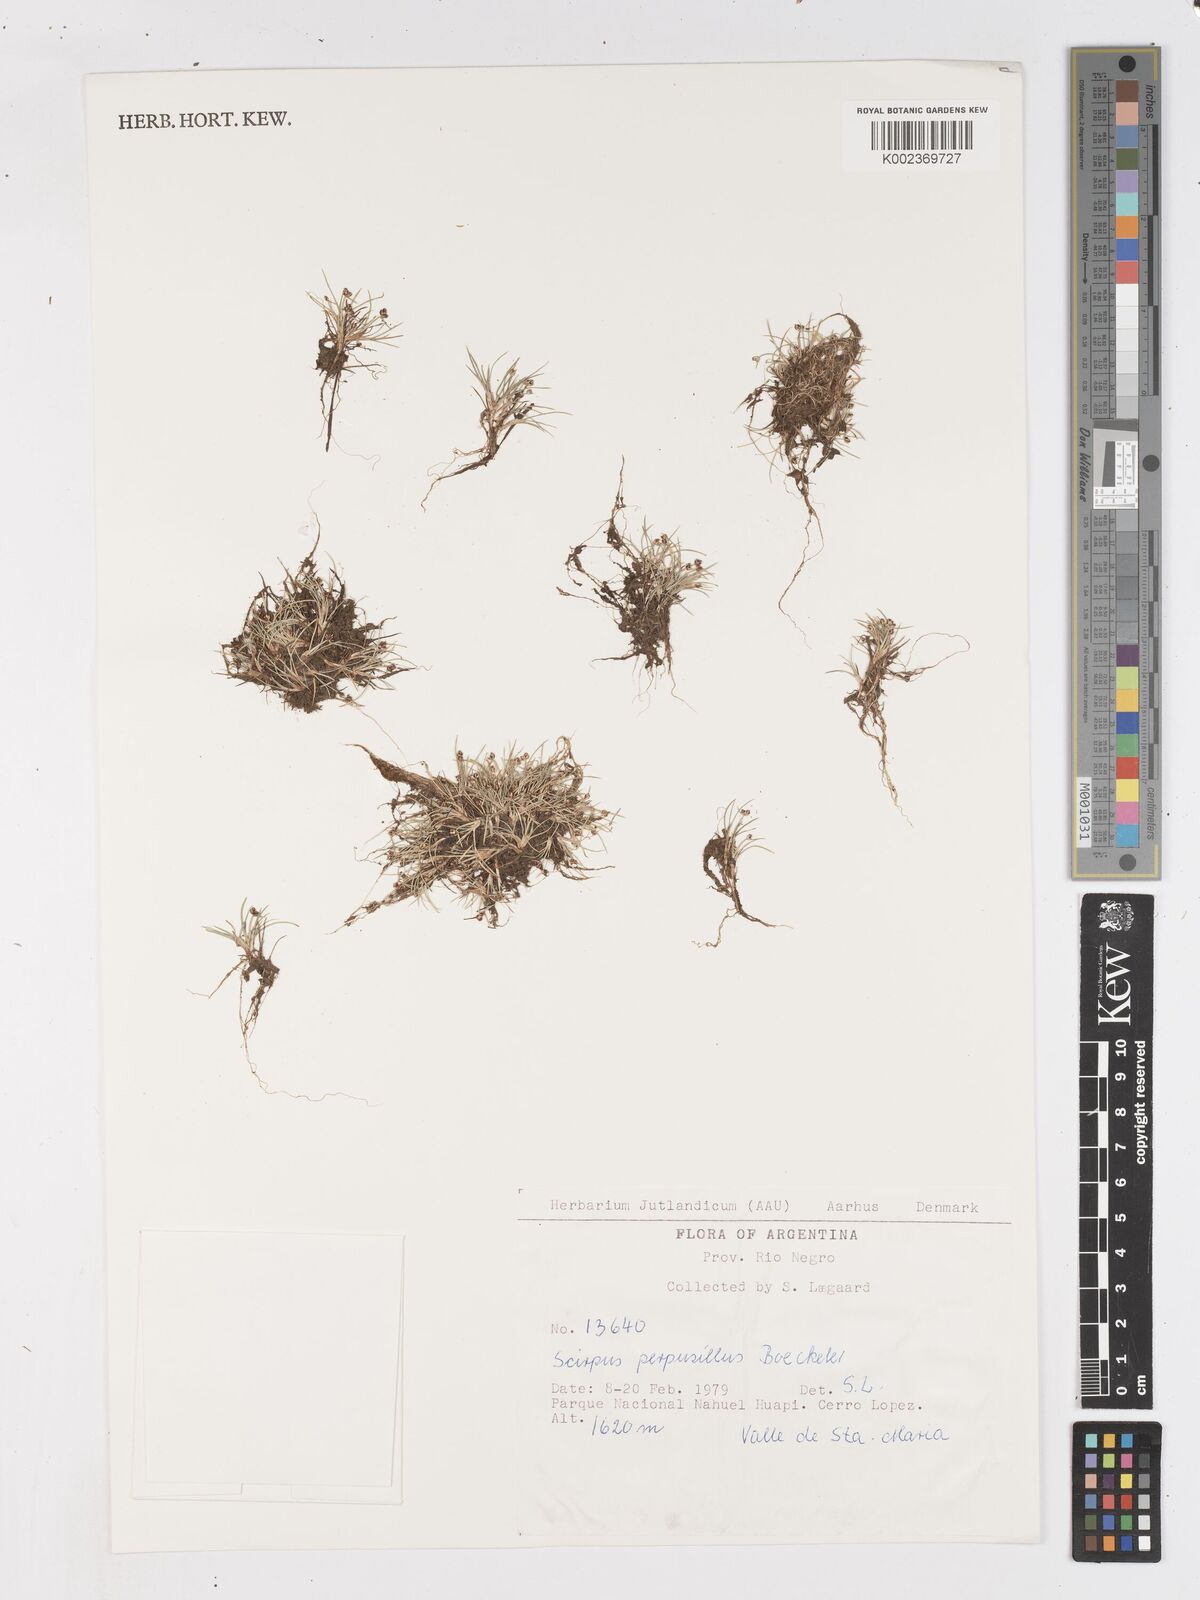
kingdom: Plantae
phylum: Tracheophyta
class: Liliopsida
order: Poales
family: Cyperaceae
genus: Isolepis
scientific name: Isolepis aucklandica
